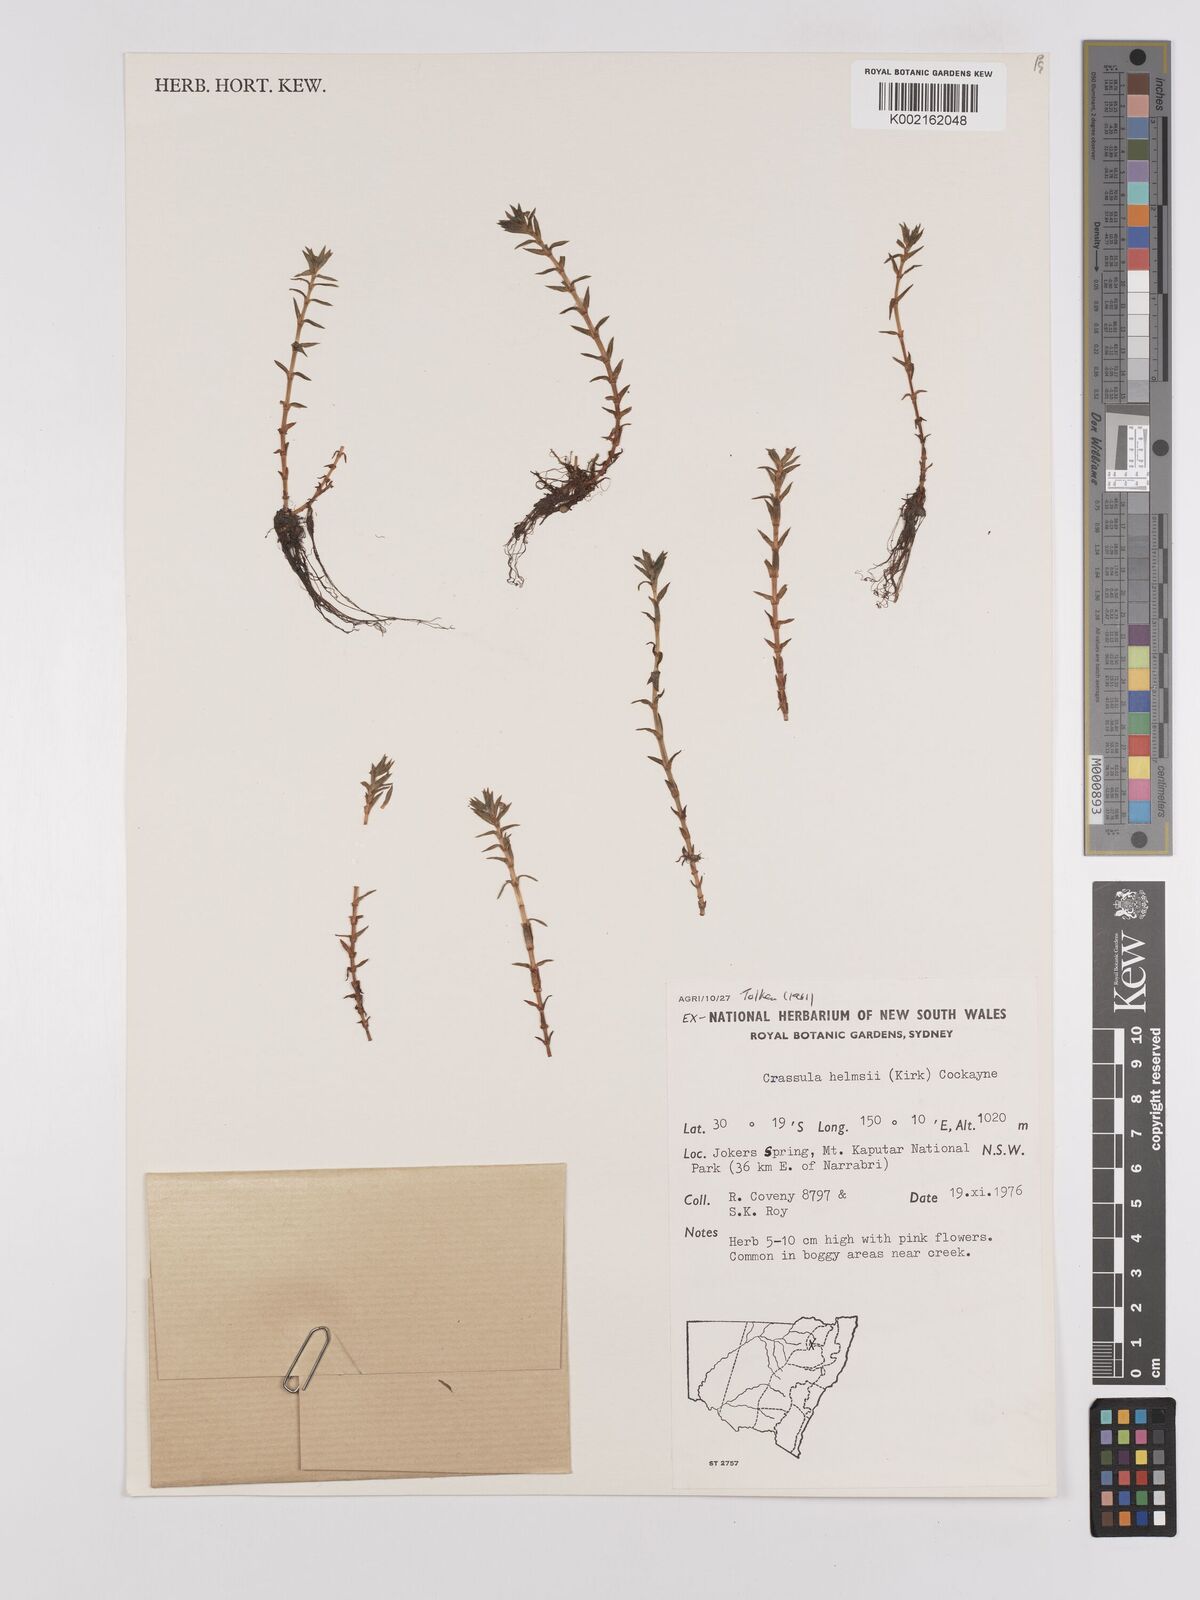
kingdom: Plantae
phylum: Tracheophyta
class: Magnoliopsida
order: Saxifragales
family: Crassulaceae
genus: Crassula
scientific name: Crassula helmsii
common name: New zealand pigmyweed
